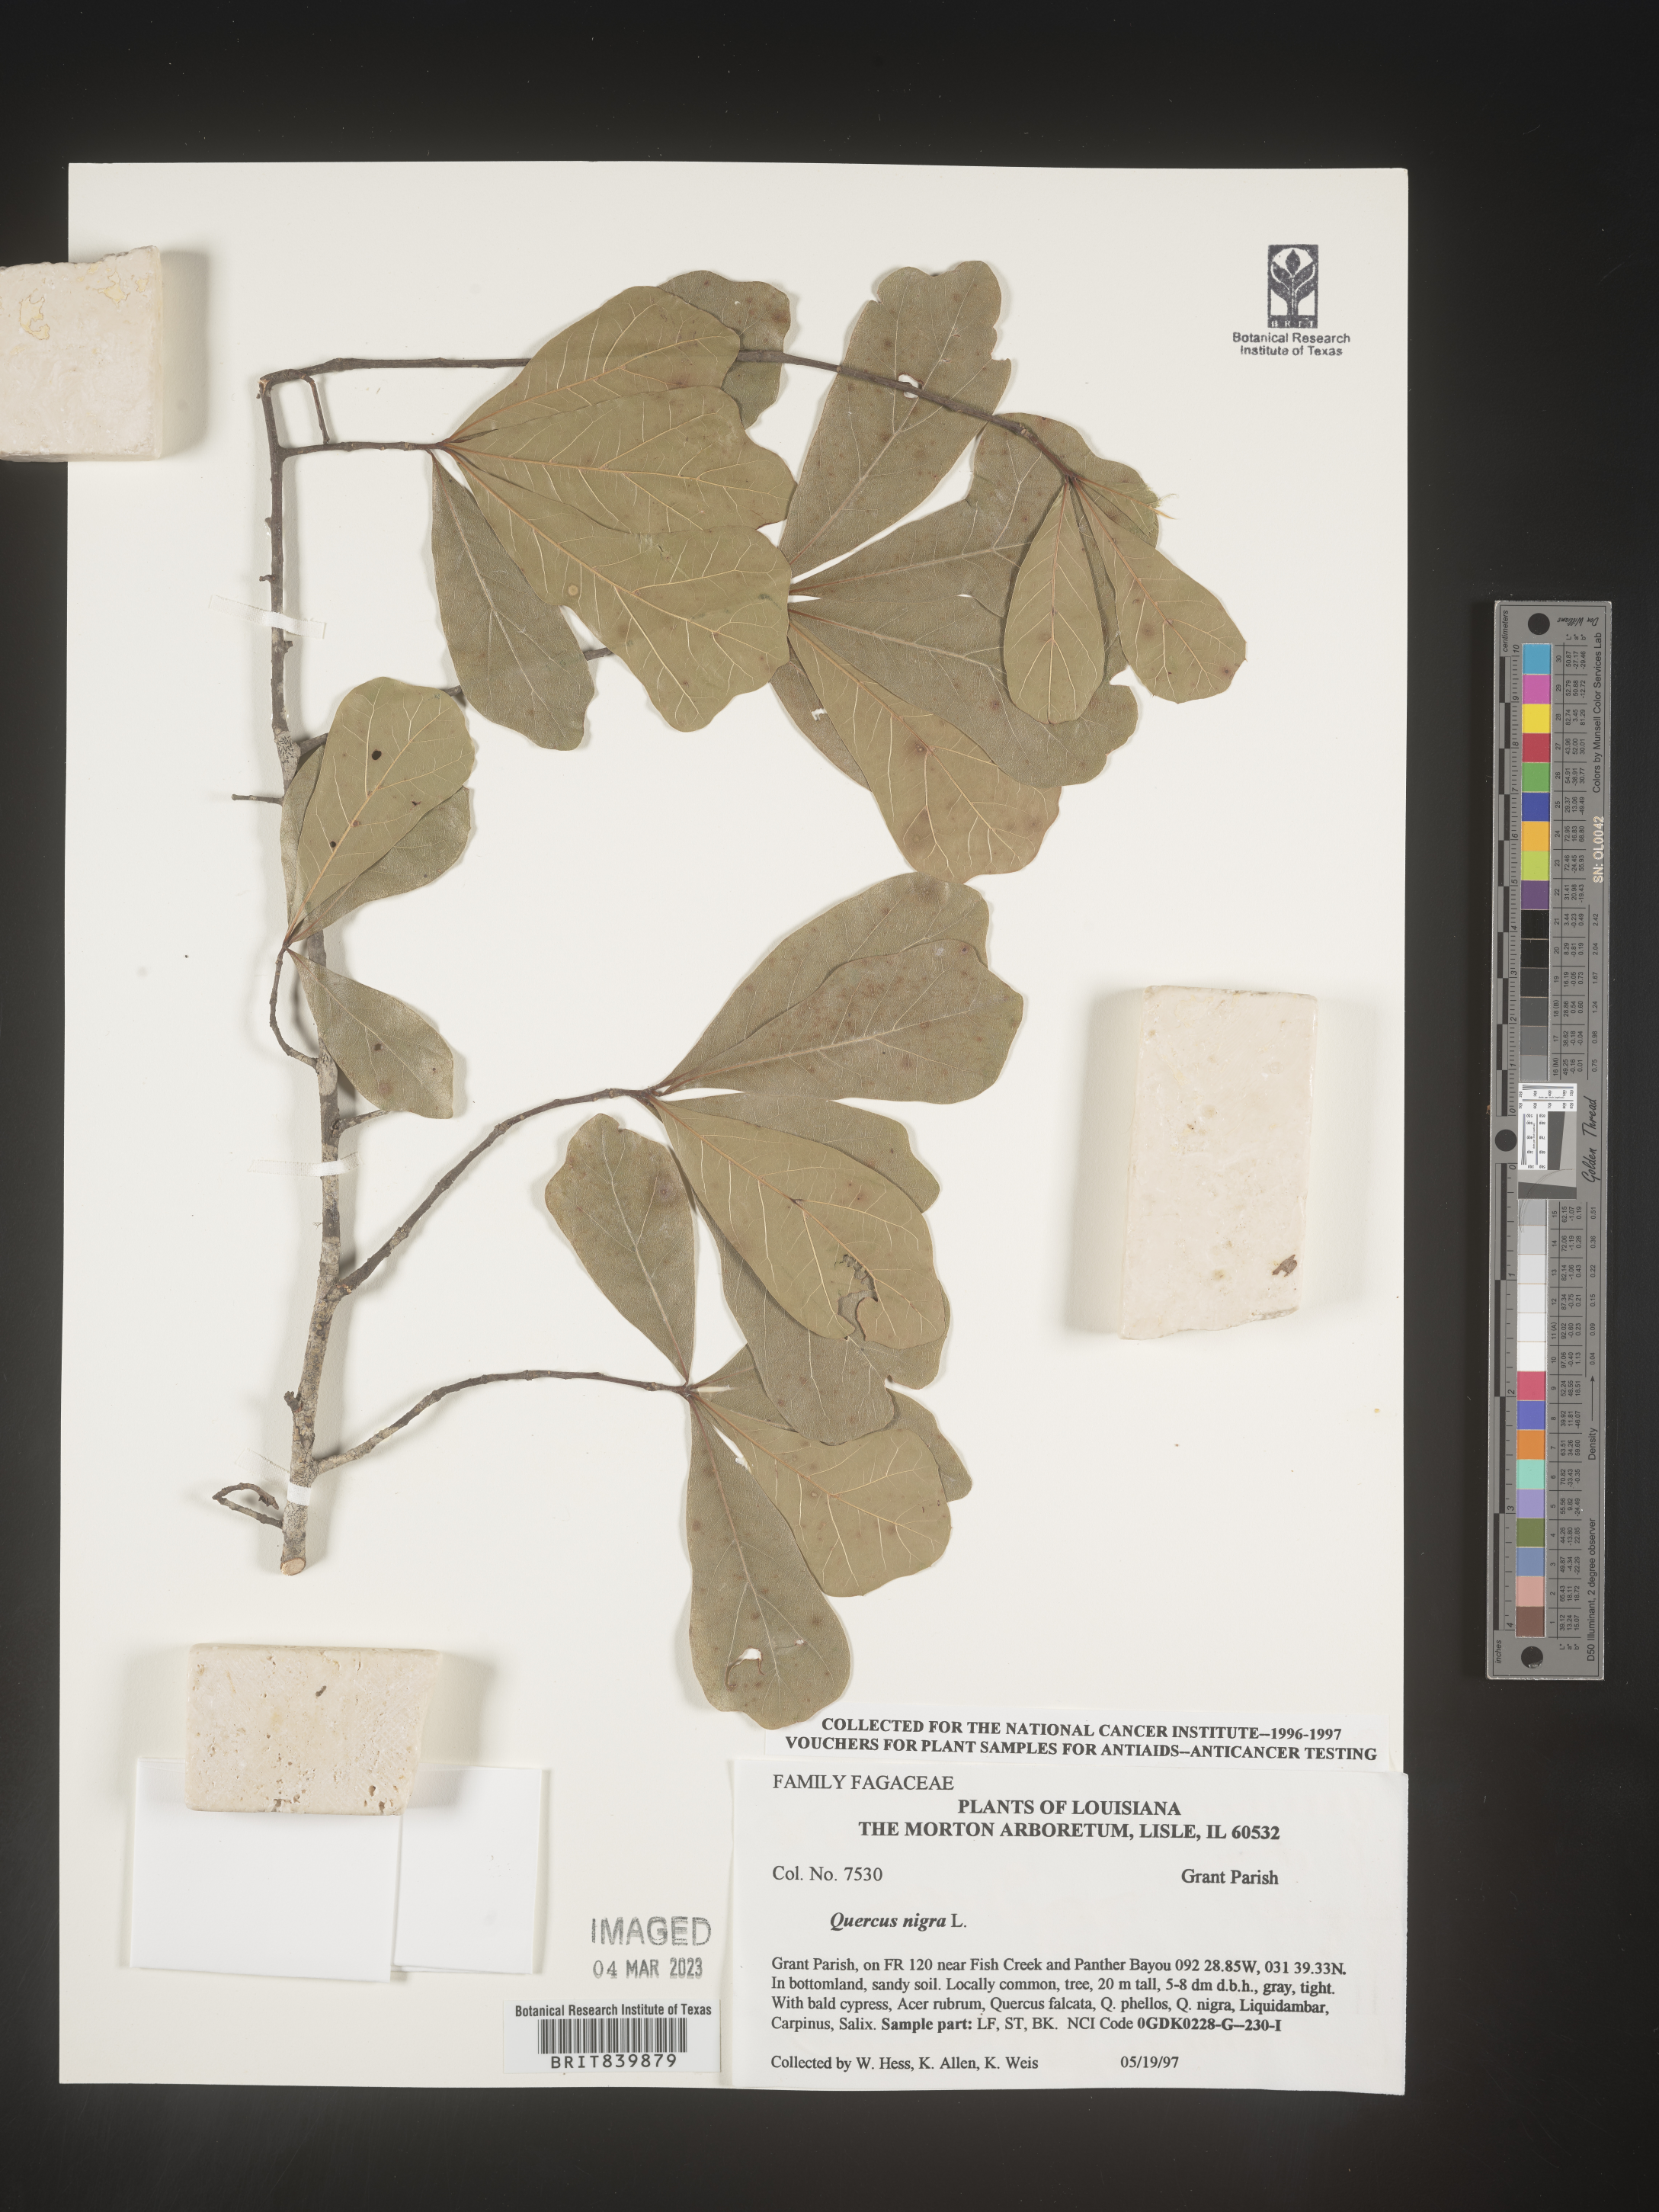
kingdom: Plantae
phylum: Tracheophyta
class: Magnoliopsida
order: Fagales
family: Fagaceae
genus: Quercus
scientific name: Quercus nigra
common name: Water oak
